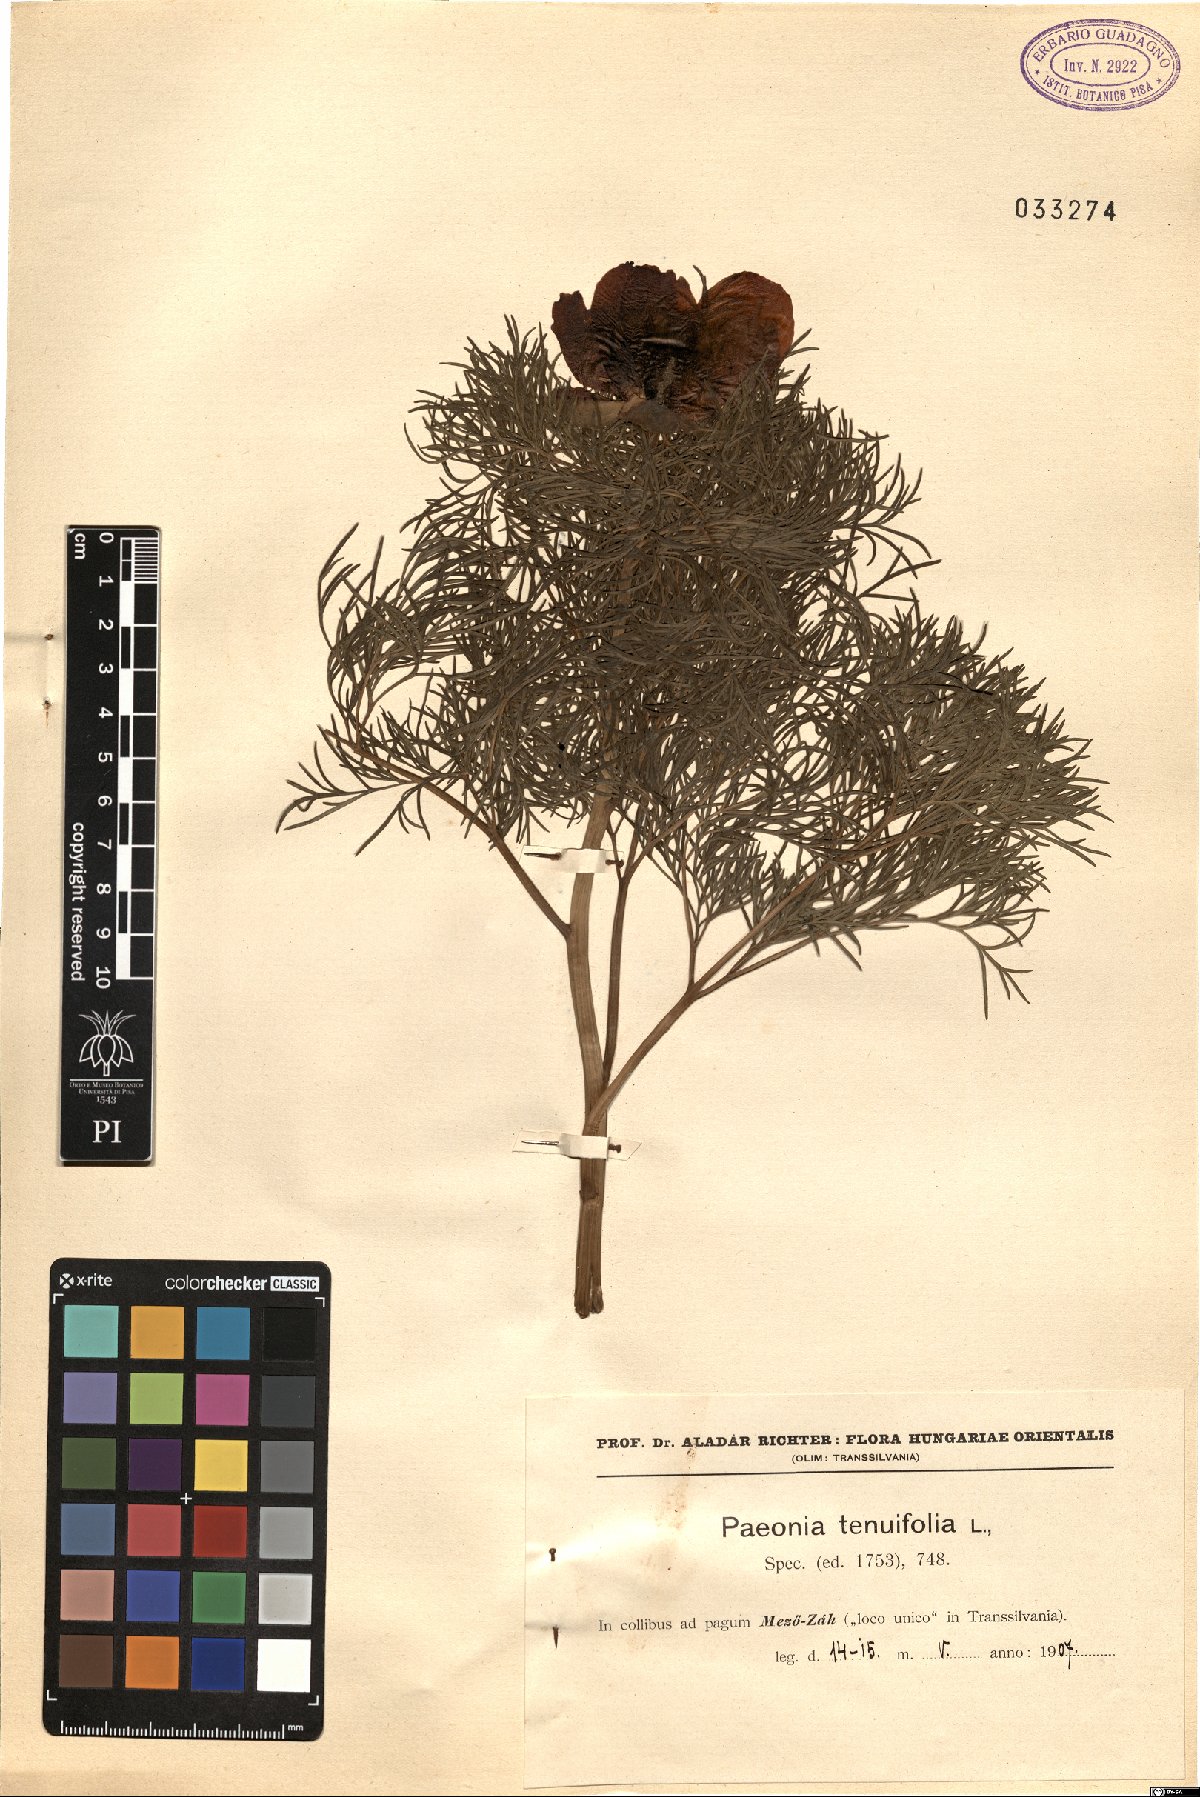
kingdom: Plantae
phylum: Tracheophyta
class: Magnoliopsida
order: Saxifragales
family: Paeoniaceae
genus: Paeonia
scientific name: Paeonia tenuifolia
